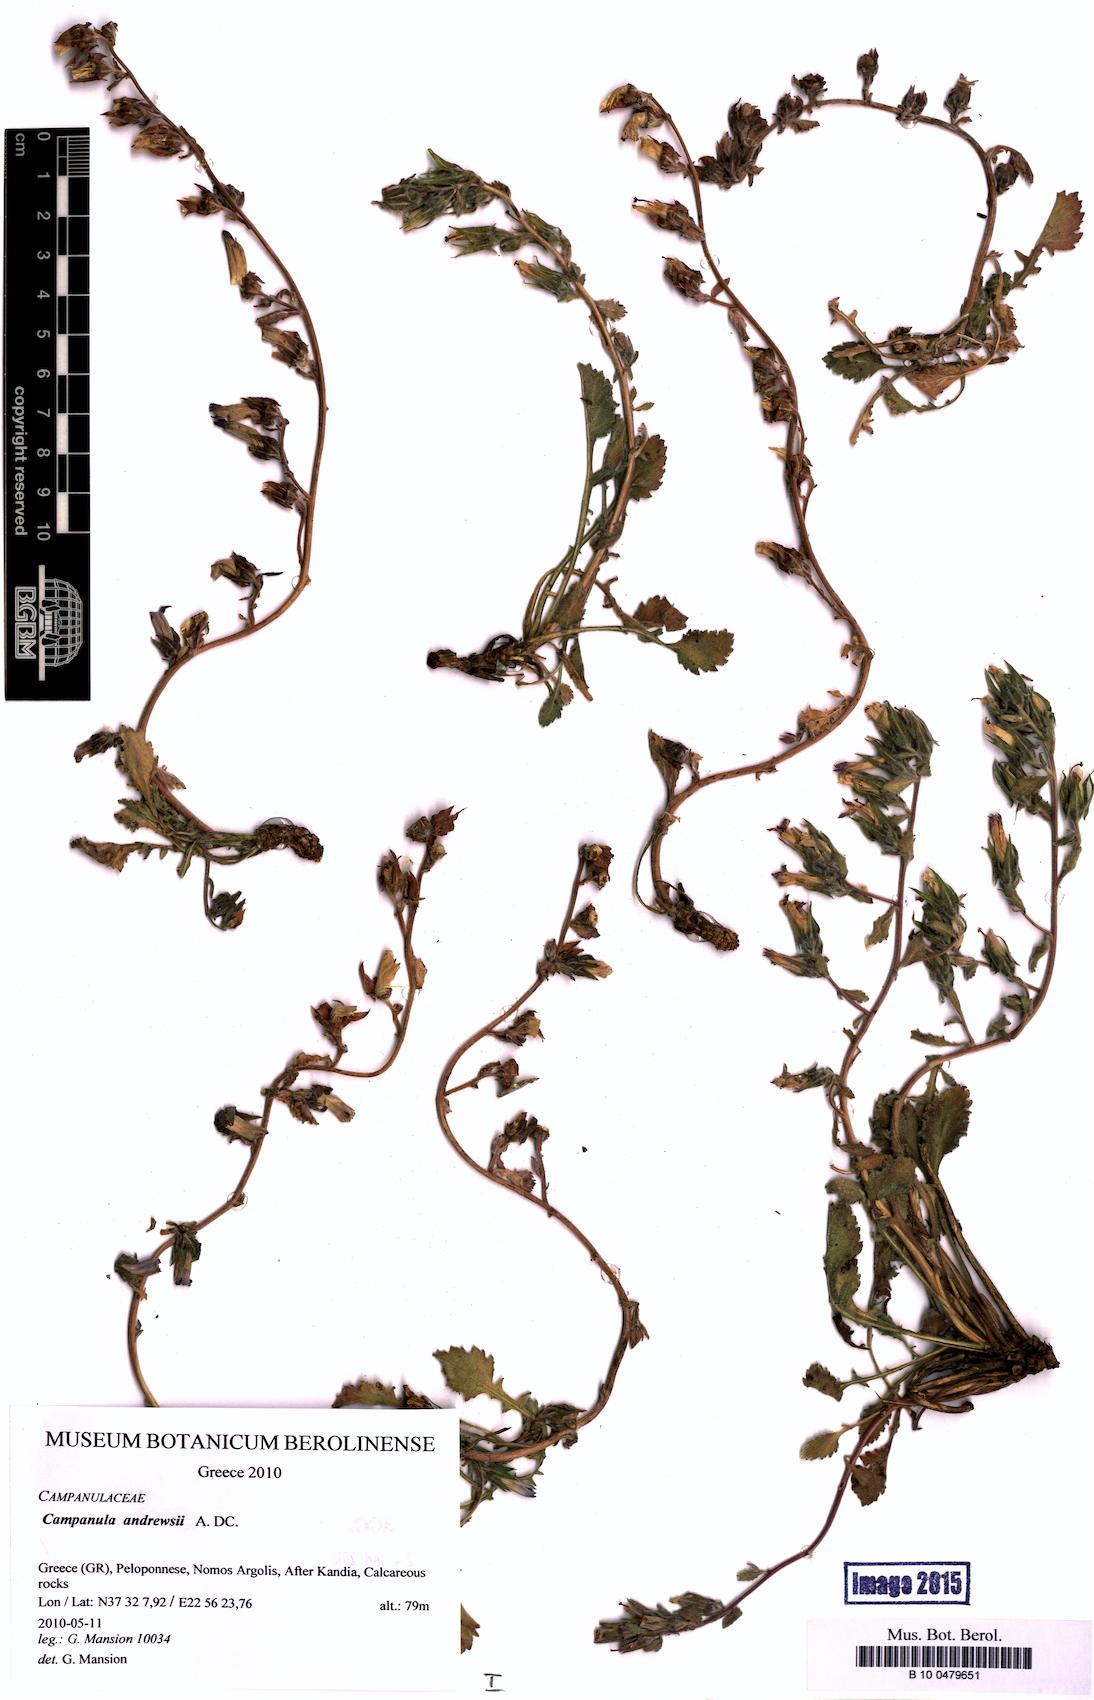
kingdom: Plantae
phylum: Tracheophyta
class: Magnoliopsida
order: Asterales
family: Campanulaceae
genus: Campanula
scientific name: Campanula andrewsii
